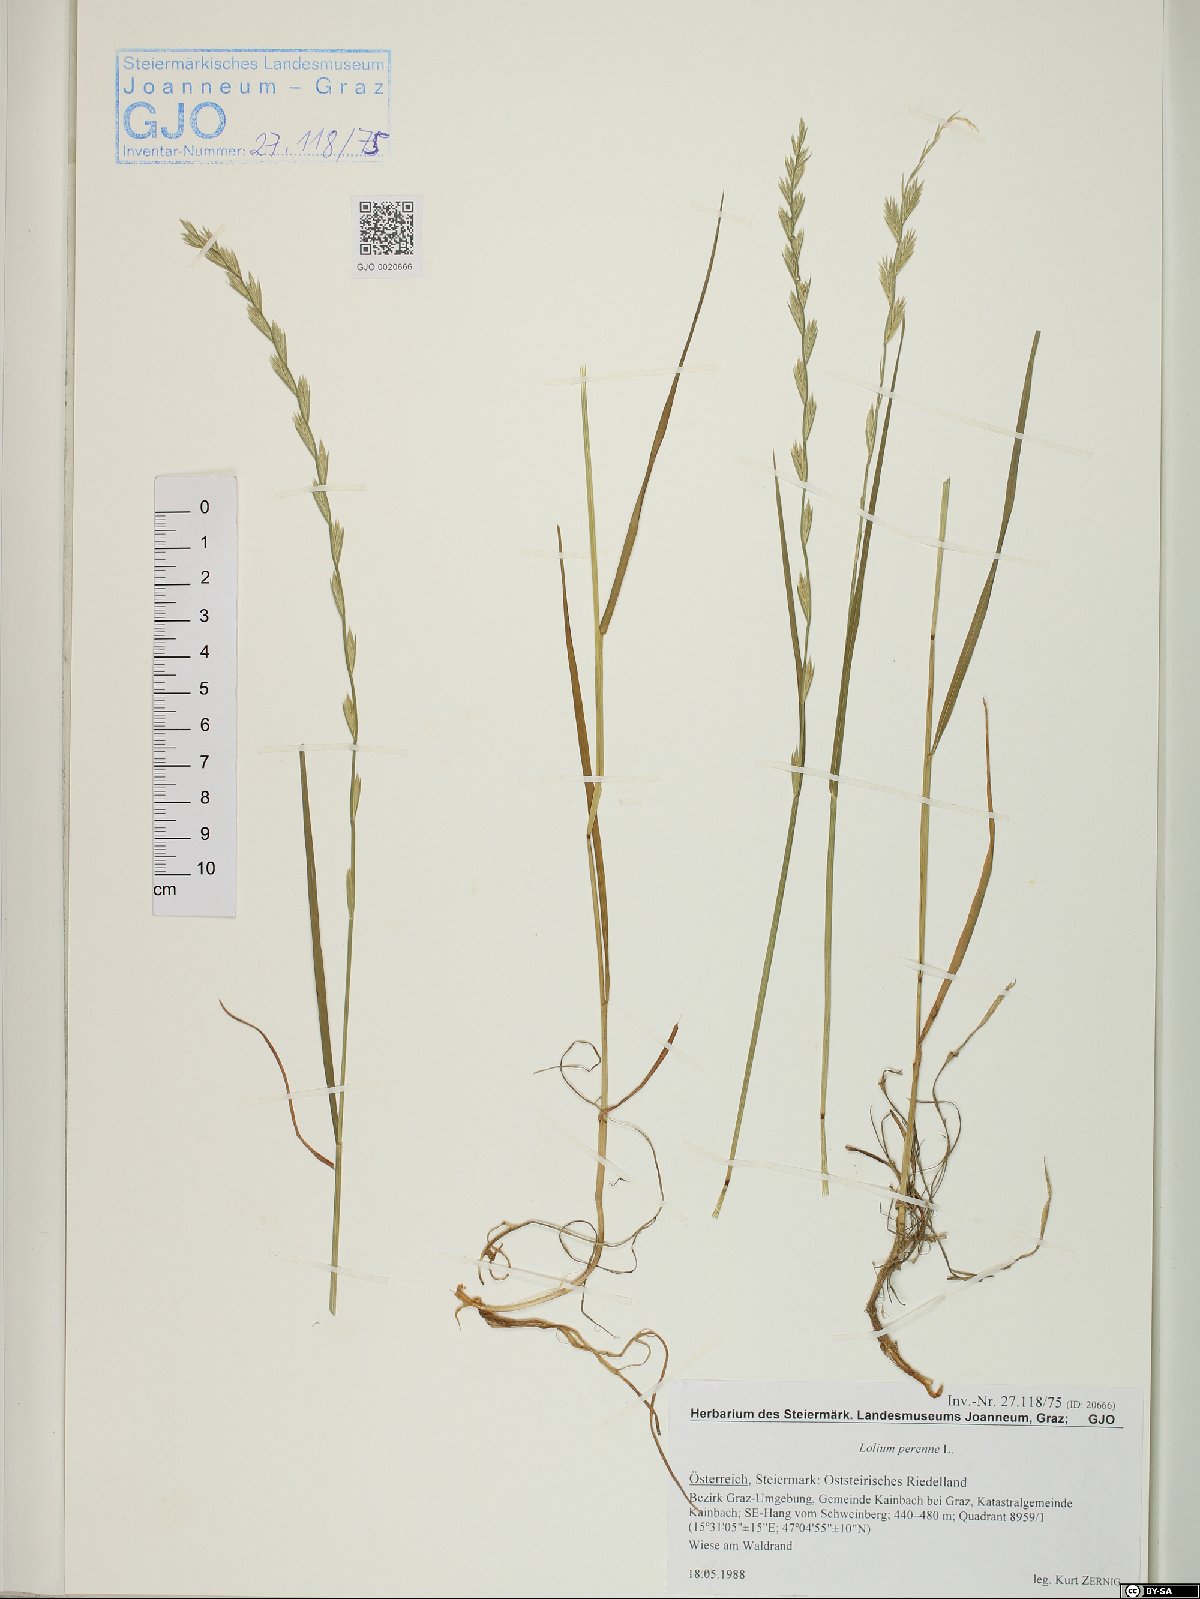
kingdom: Plantae
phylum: Tracheophyta
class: Liliopsida
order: Poales
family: Poaceae
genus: Lolium
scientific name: Lolium perenne
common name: Perennial ryegrass
